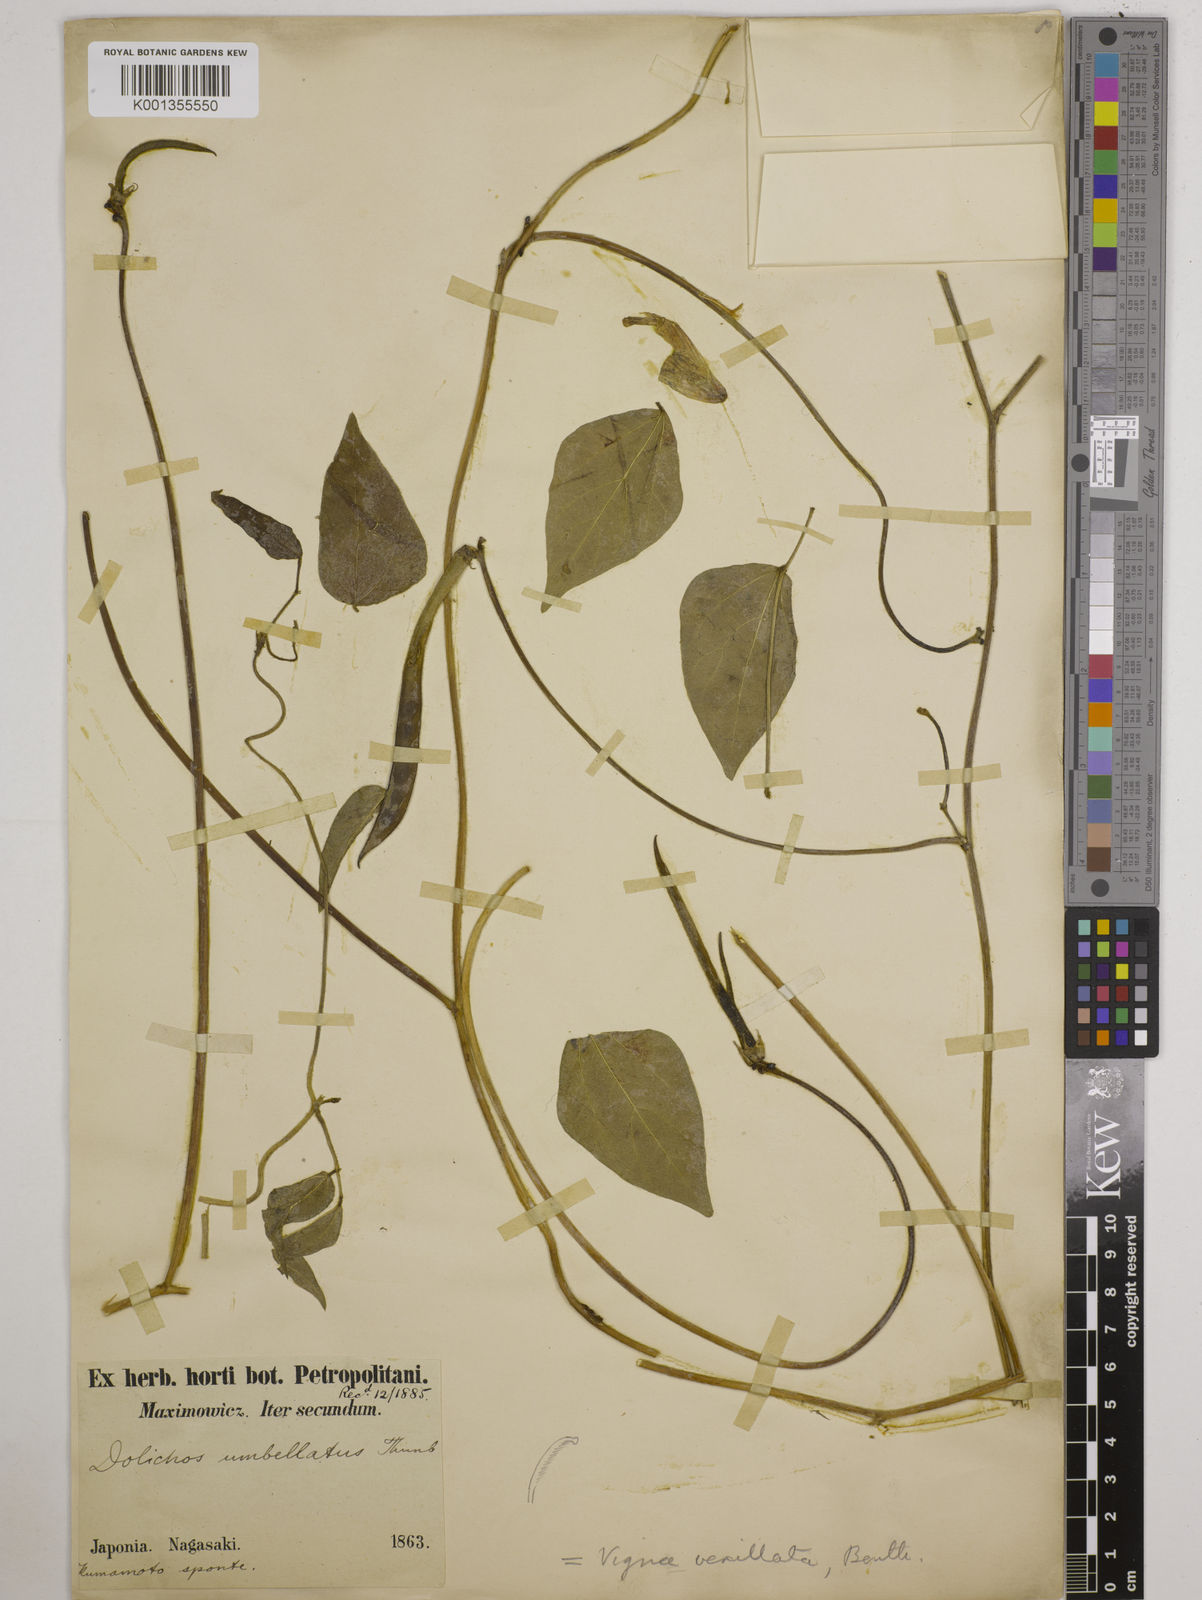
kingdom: Plantae
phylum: Tracheophyta
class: Magnoliopsida
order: Fabales
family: Fabaceae
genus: Vigna
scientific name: Vigna vexillata
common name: Zombi pea
